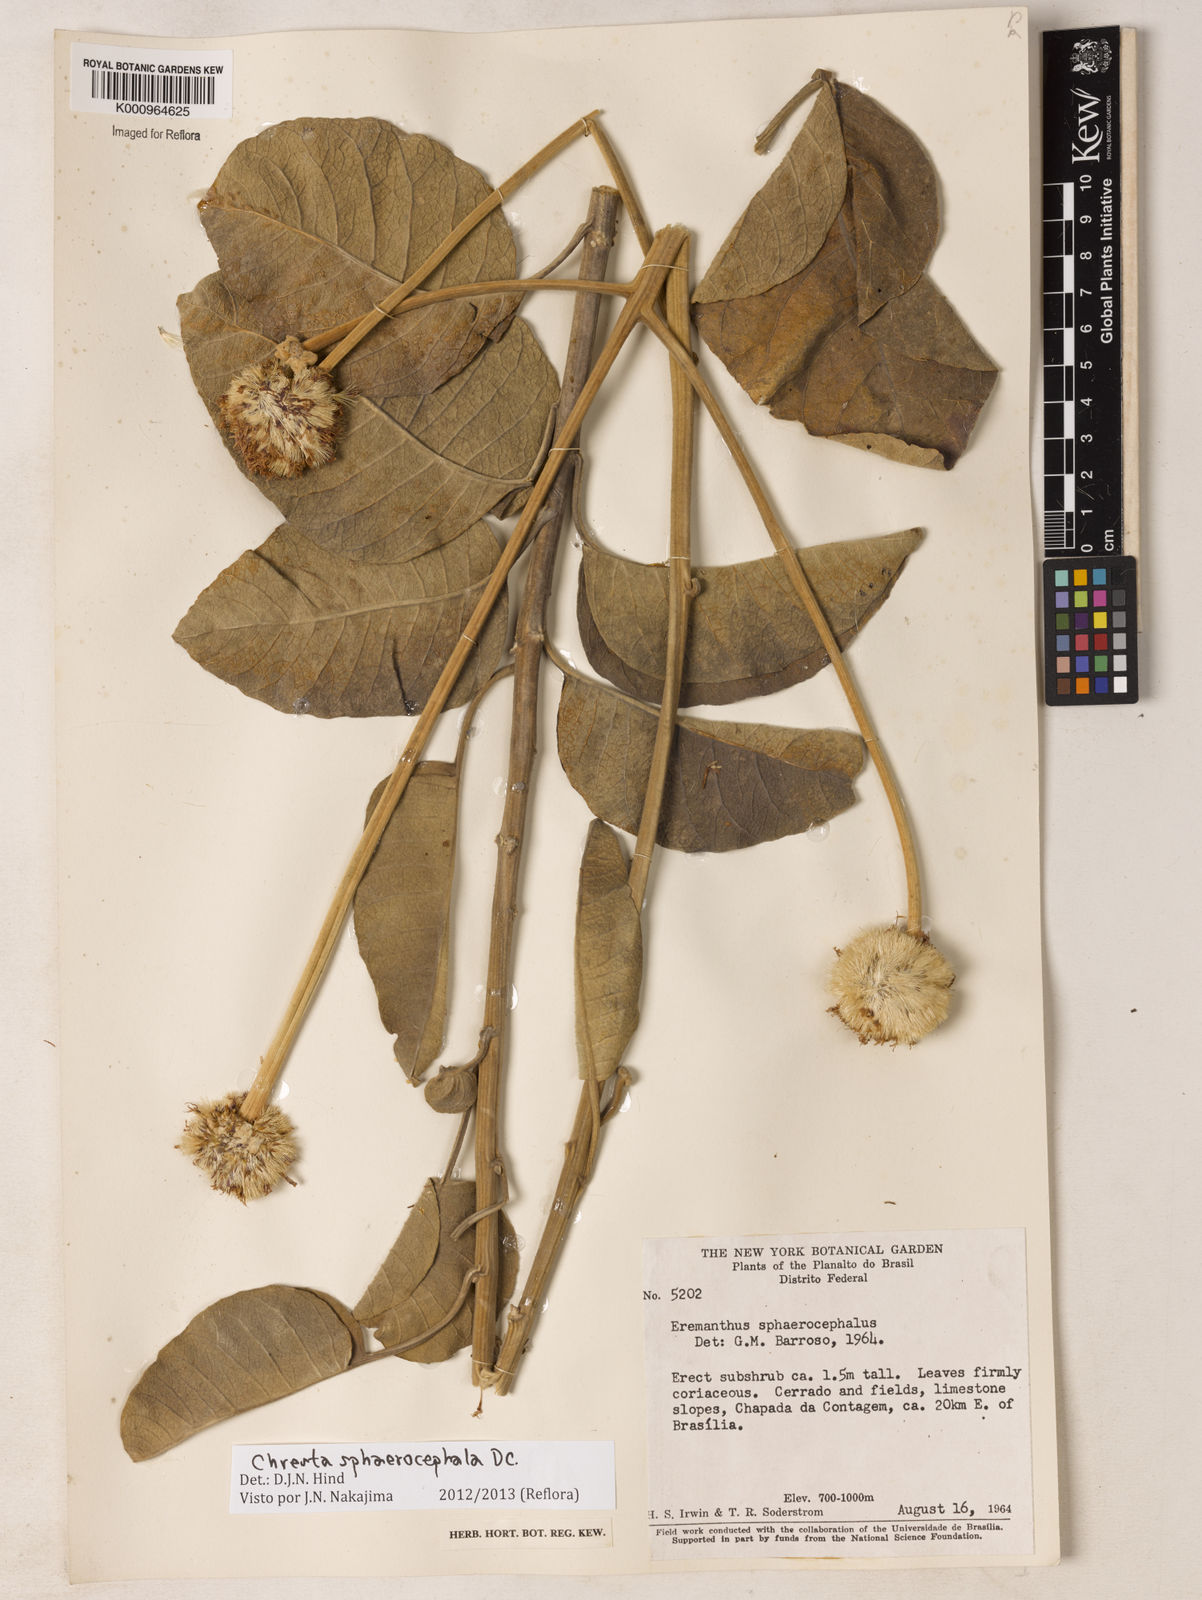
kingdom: Plantae
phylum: Tracheophyta
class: Magnoliopsida
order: Asterales
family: Asteraceae
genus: Chresta
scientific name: Chresta sphaerocephala
